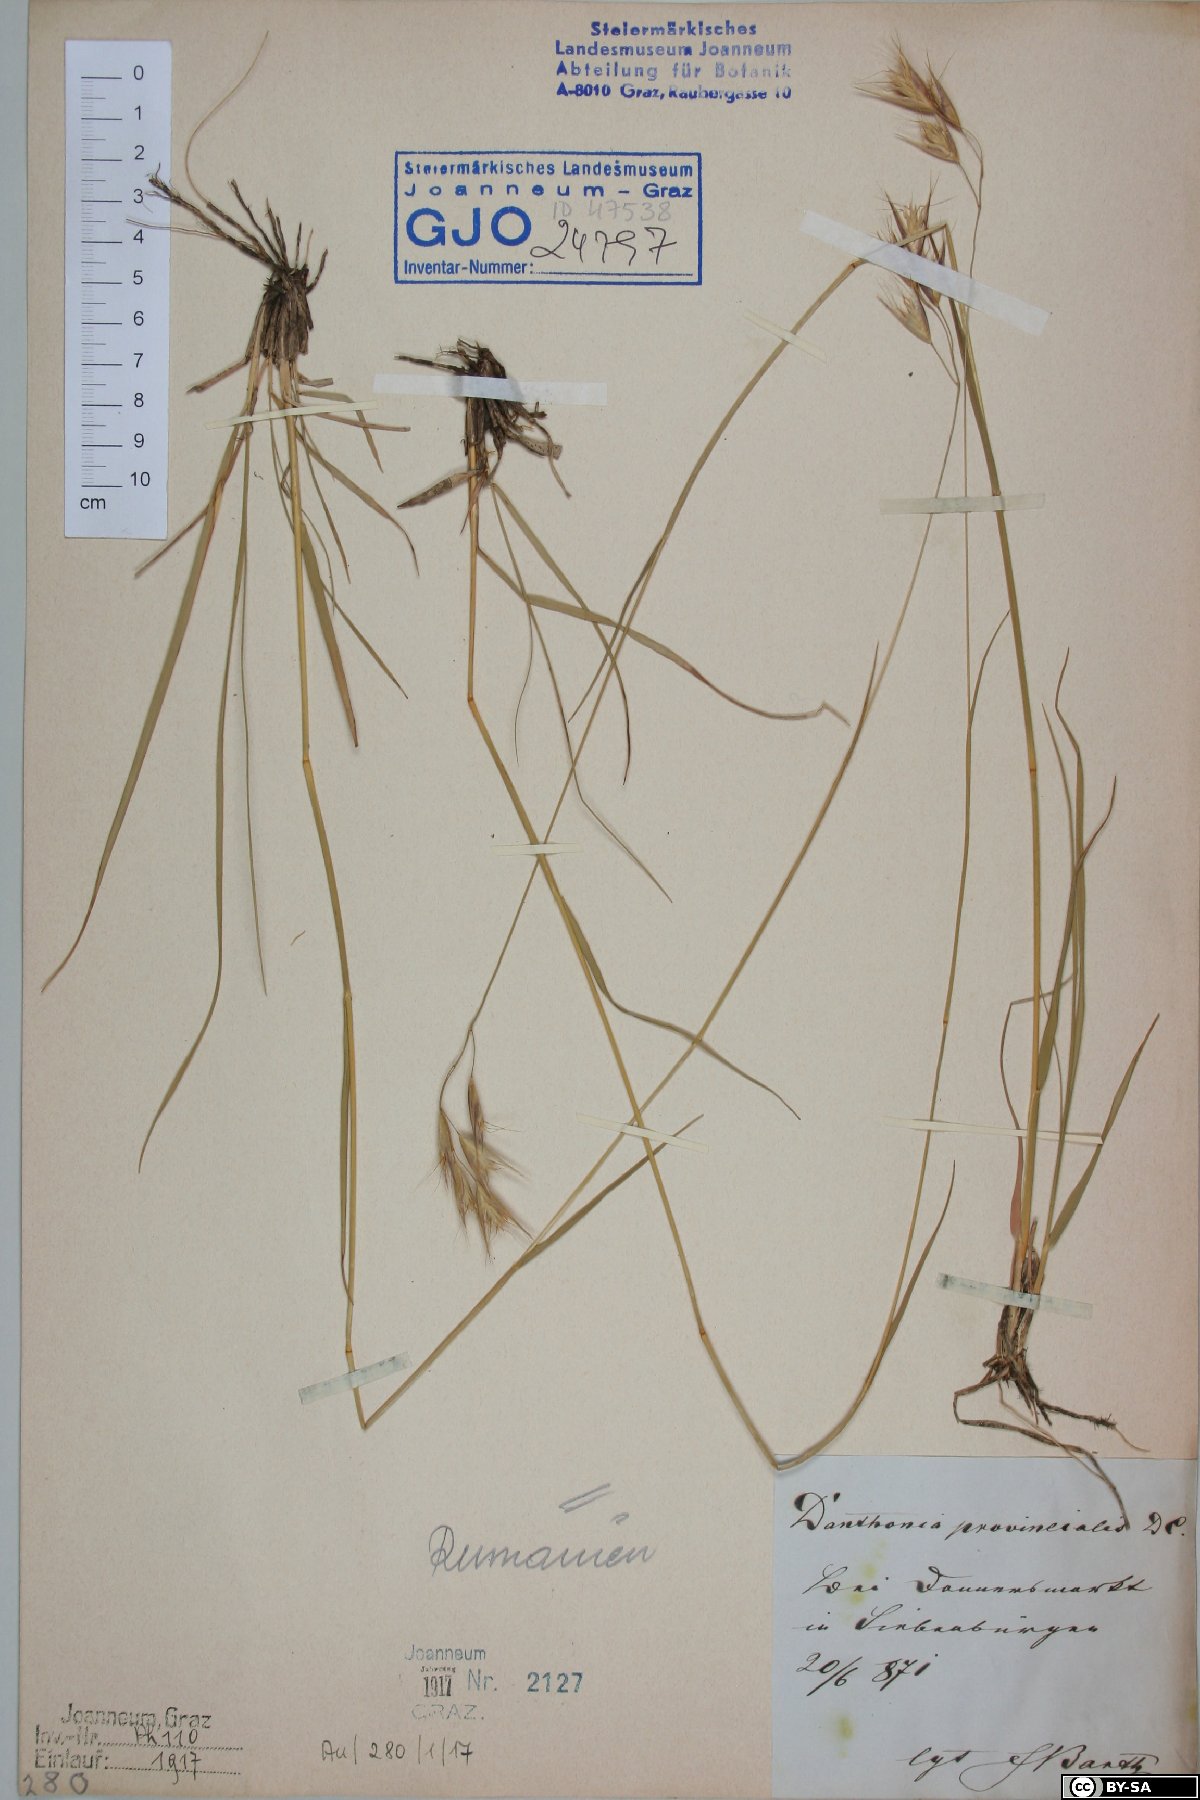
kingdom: Plantae
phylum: Tracheophyta
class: Liliopsida
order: Poales
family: Poaceae
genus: Danthonia
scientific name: Danthonia alpina
